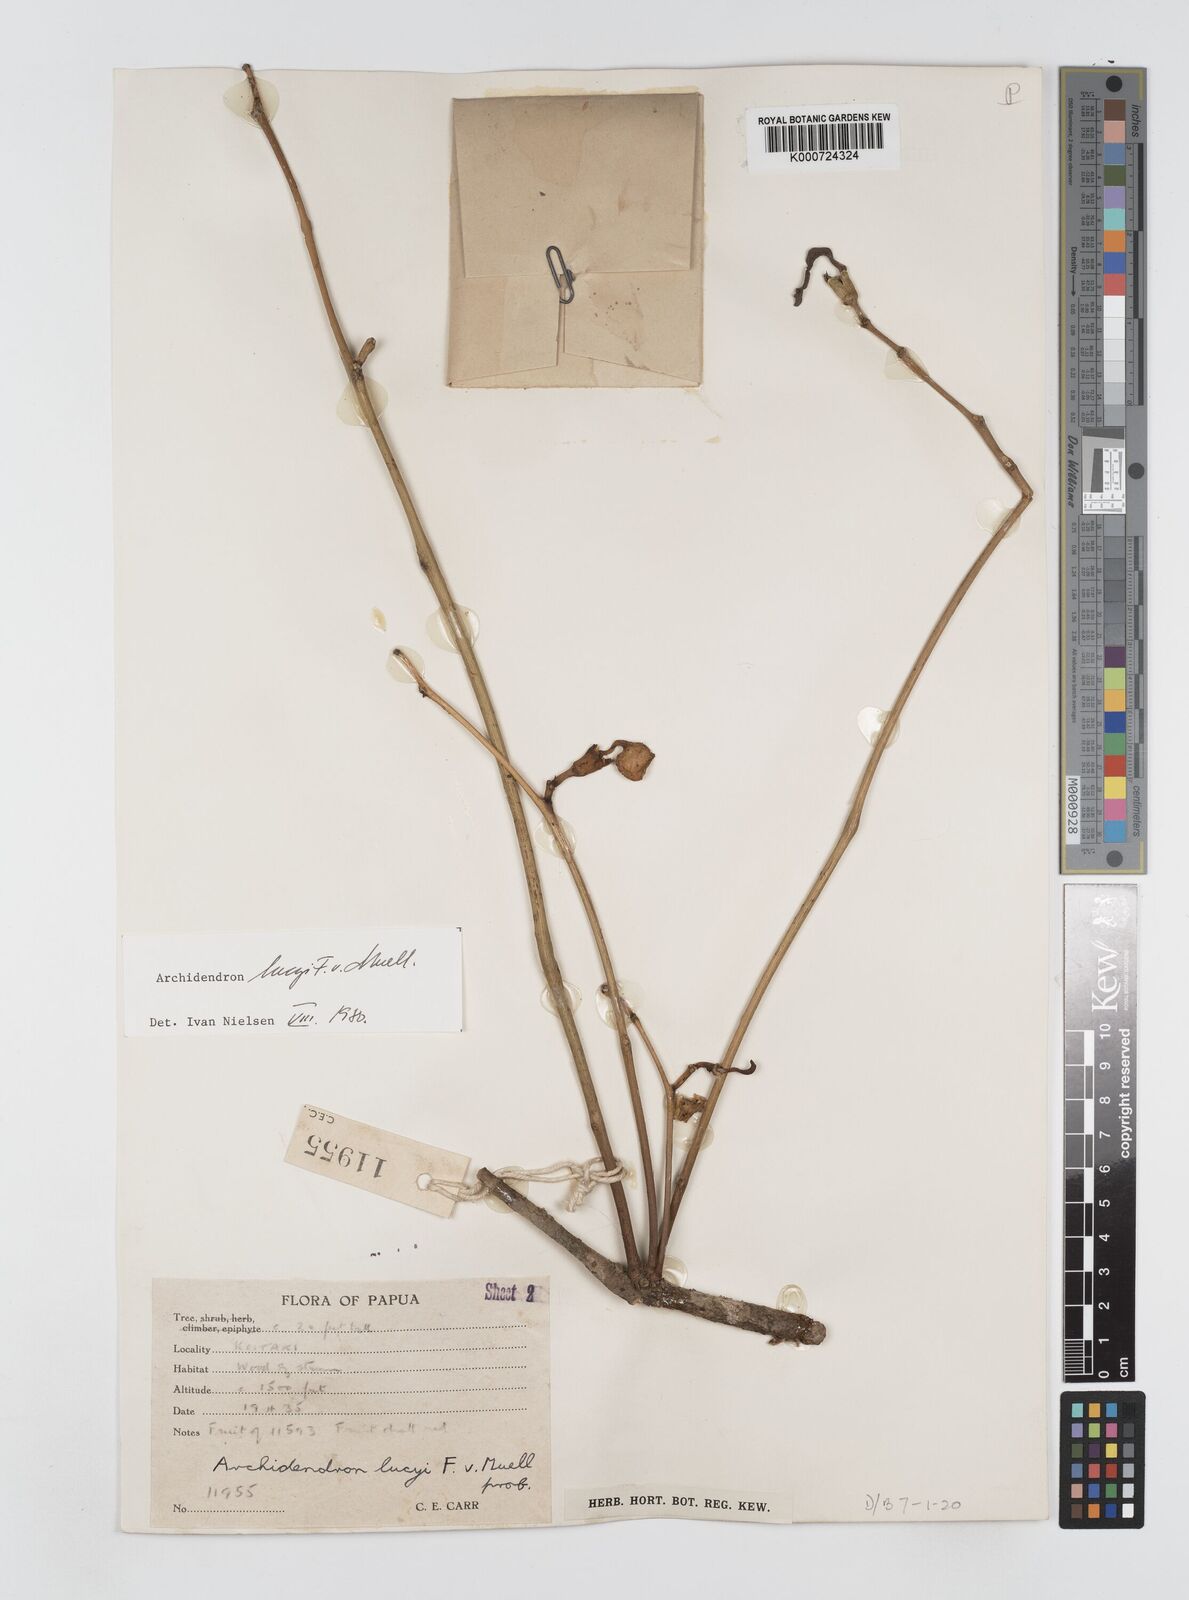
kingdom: Plantae
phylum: Tracheophyta
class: Magnoliopsida
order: Fabales
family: Fabaceae
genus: Archidendron
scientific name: Archidendron lucyi
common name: Scarlet bean
